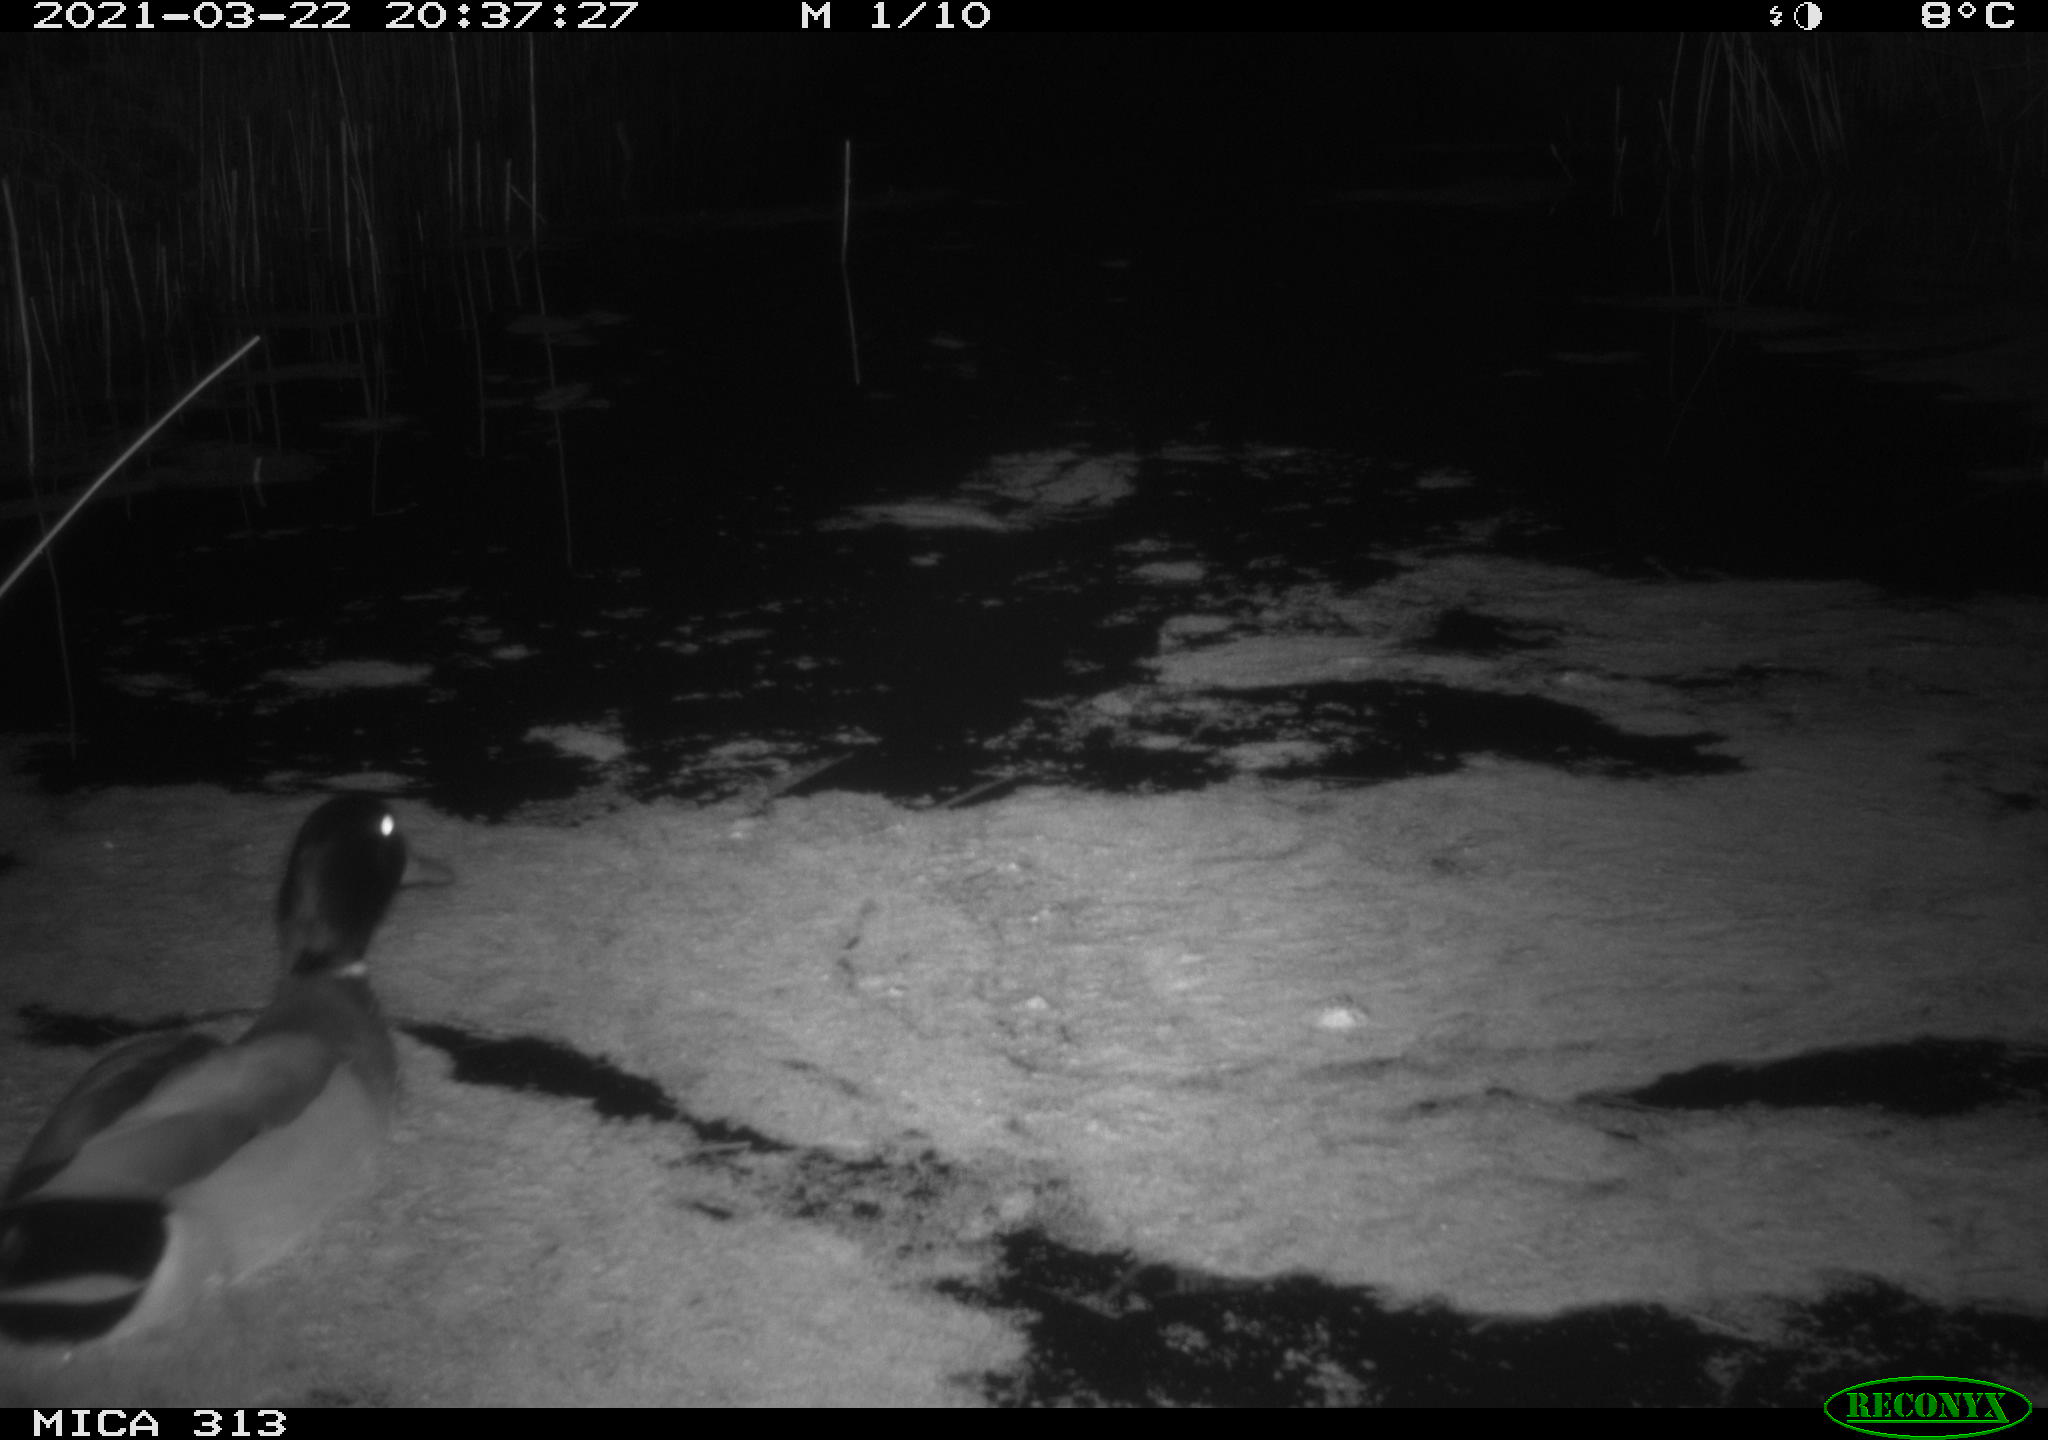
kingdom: Animalia
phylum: Chordata
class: Aves
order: Anseriformes
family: Anatidae
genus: Anas
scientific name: Anas platyrhynchos
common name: Mallard
